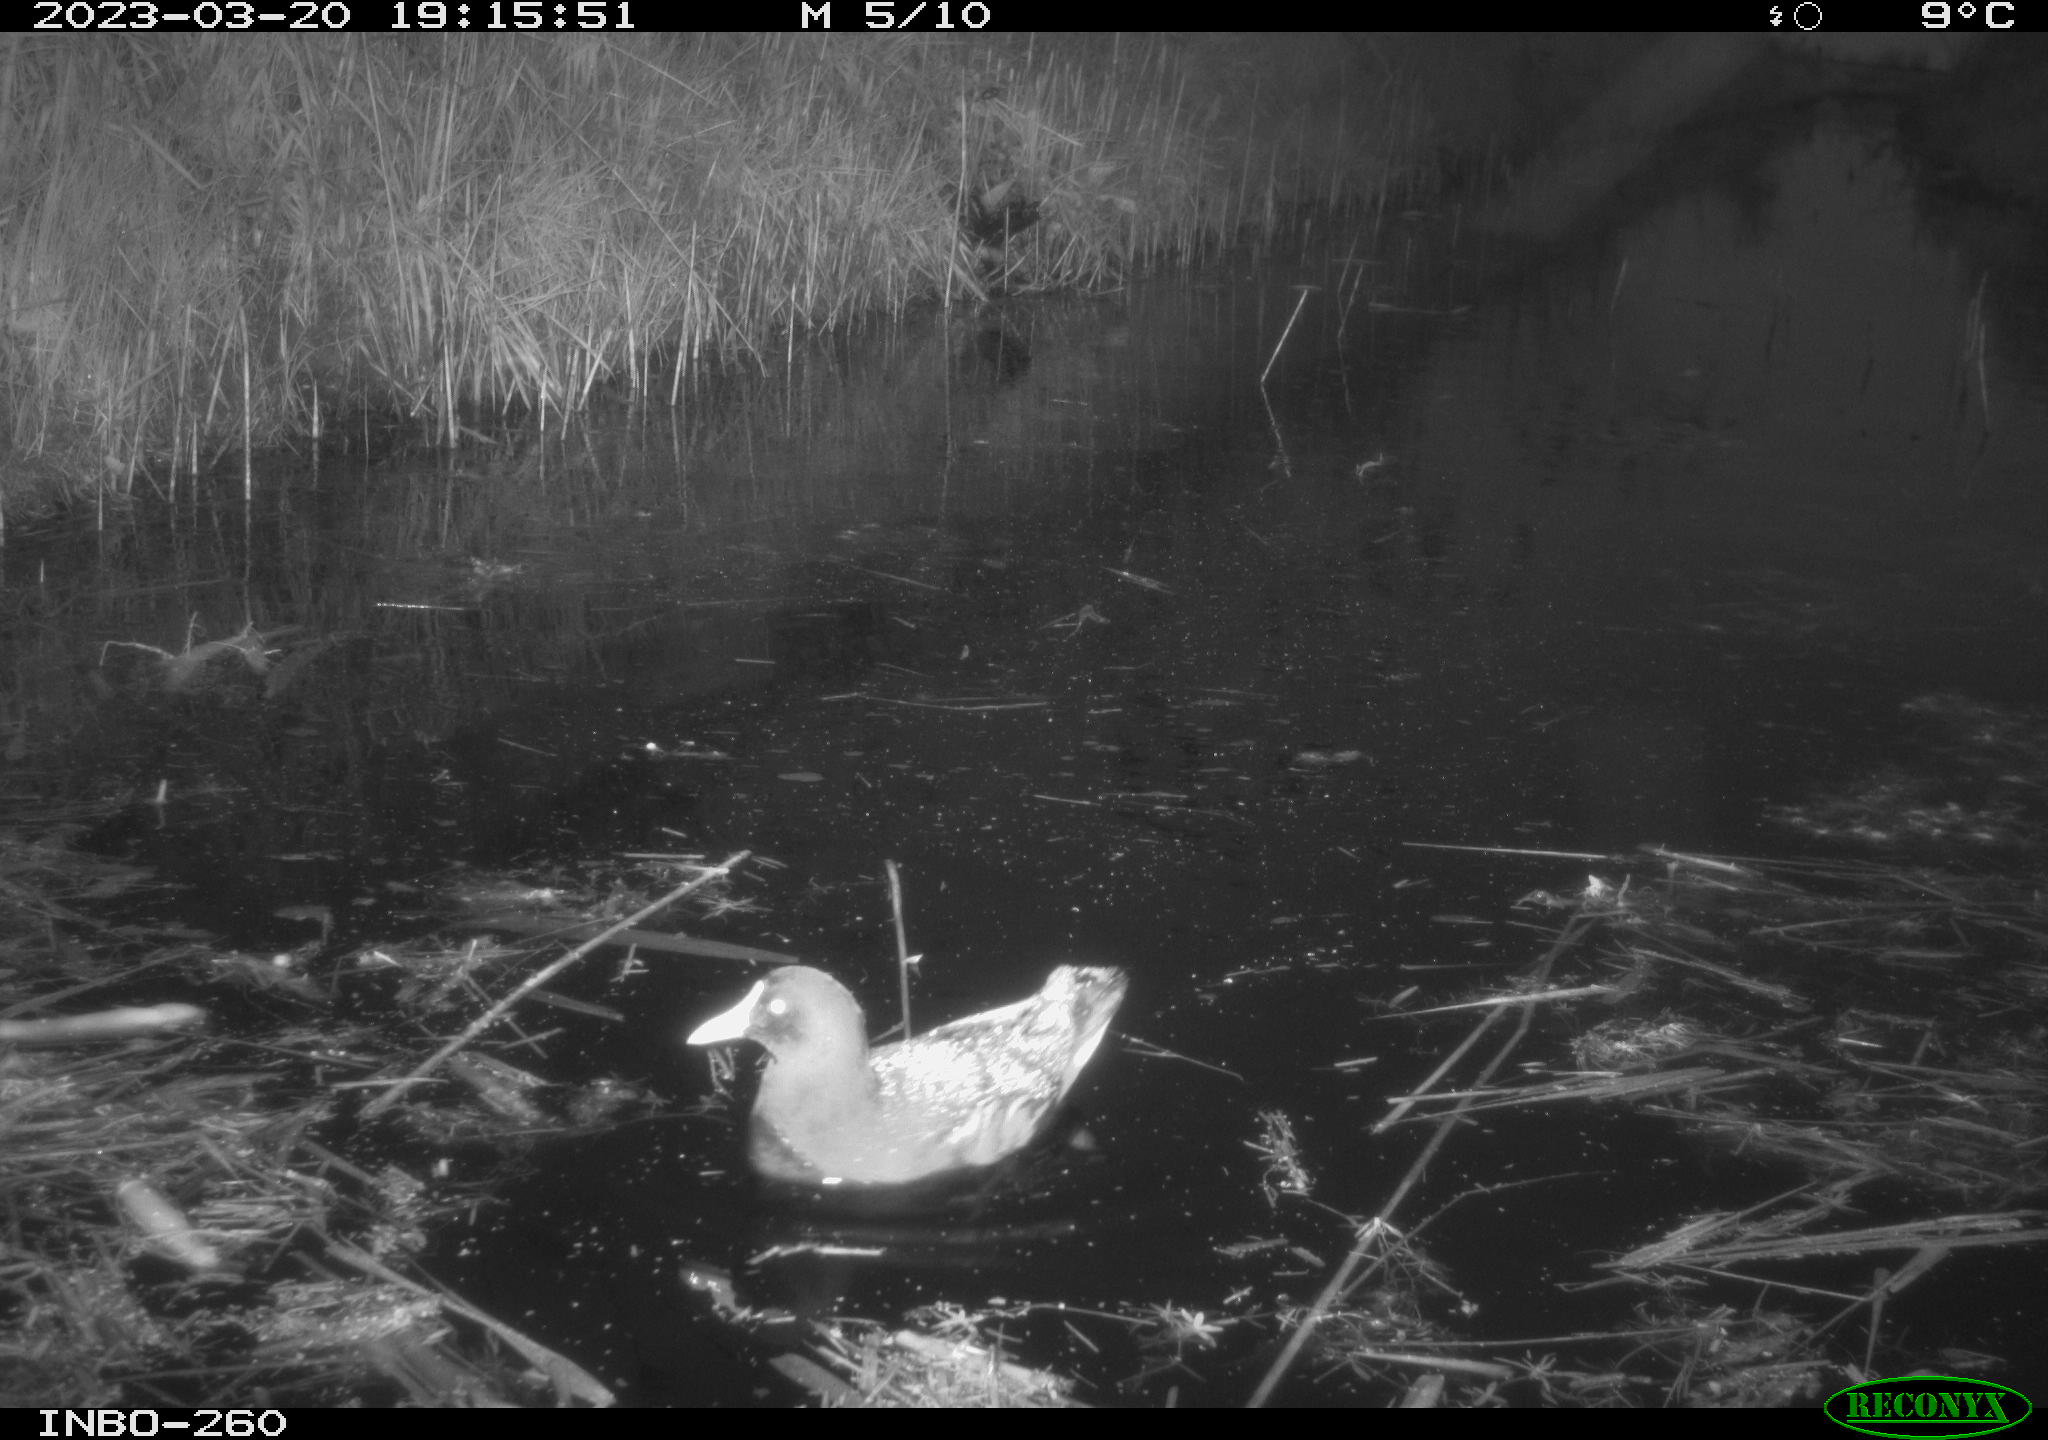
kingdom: Animalia
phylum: Chordata
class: Mammalia
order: Rodentia
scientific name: Rodentia
